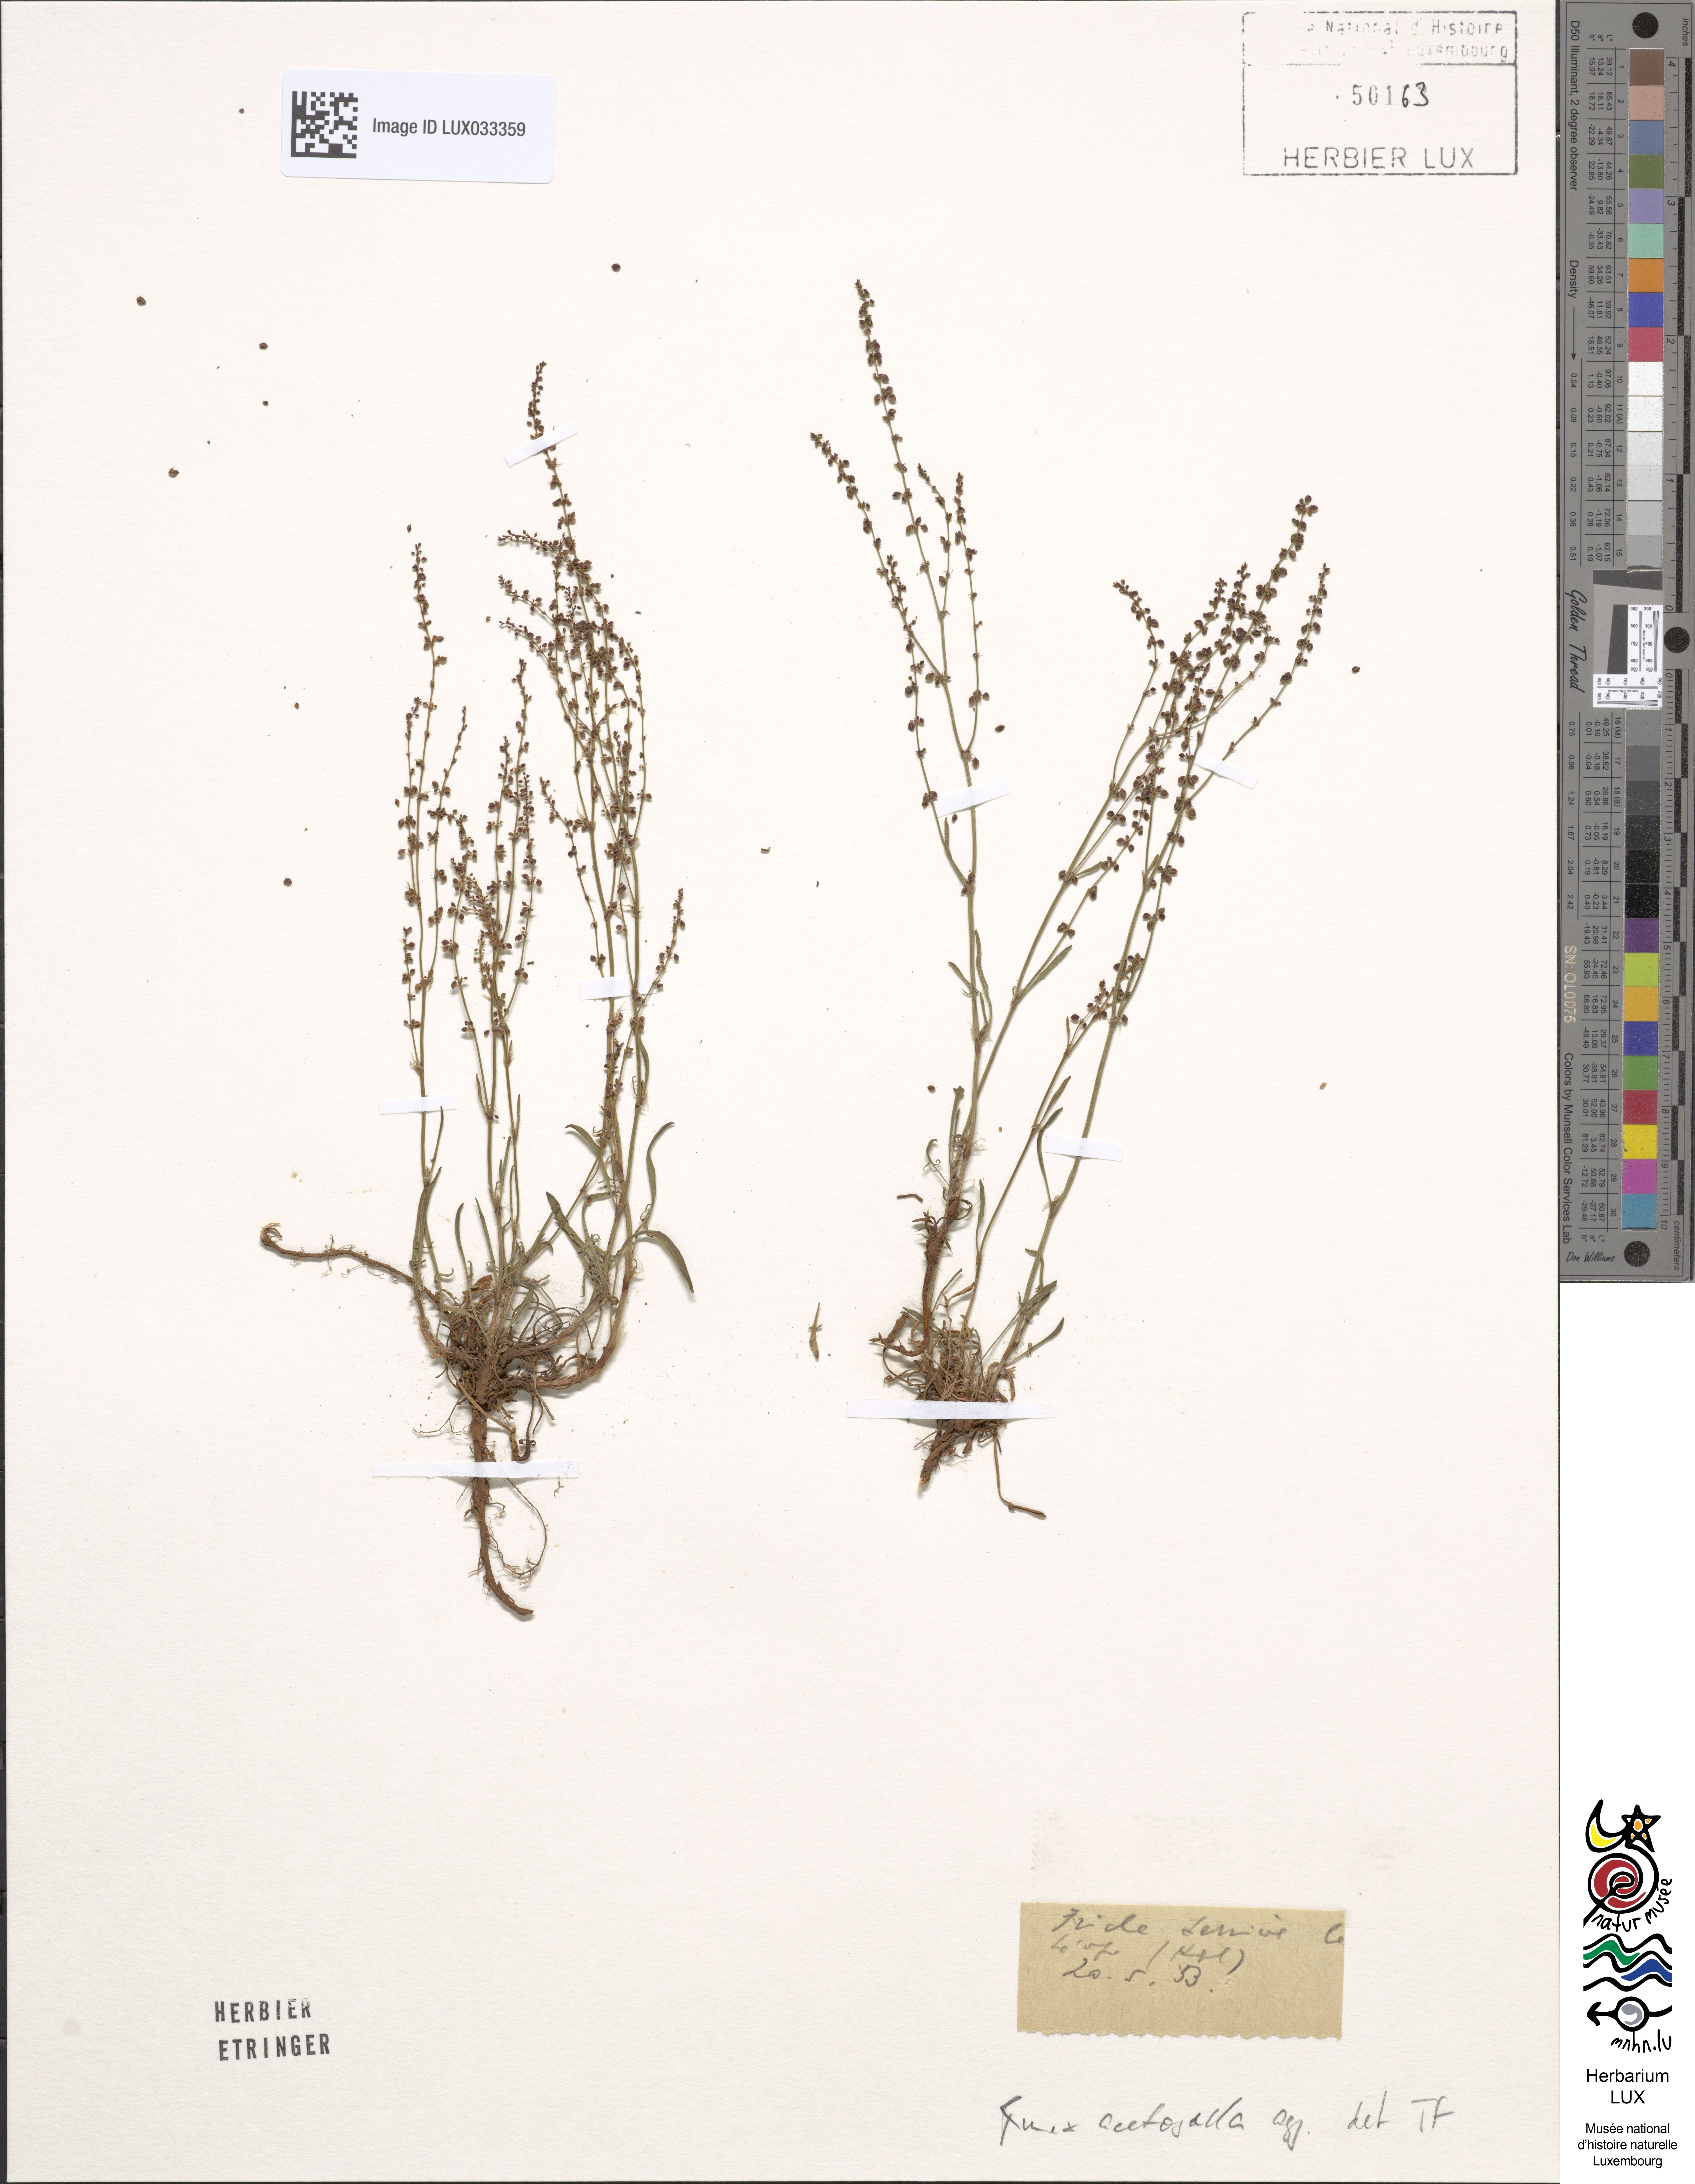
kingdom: Plantae
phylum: Tracheophyta
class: Magnoliopsida
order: Caryophyllales
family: Polygonaceae
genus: Rumex
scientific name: Rumex acetosella
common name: Common sheep sorrel
